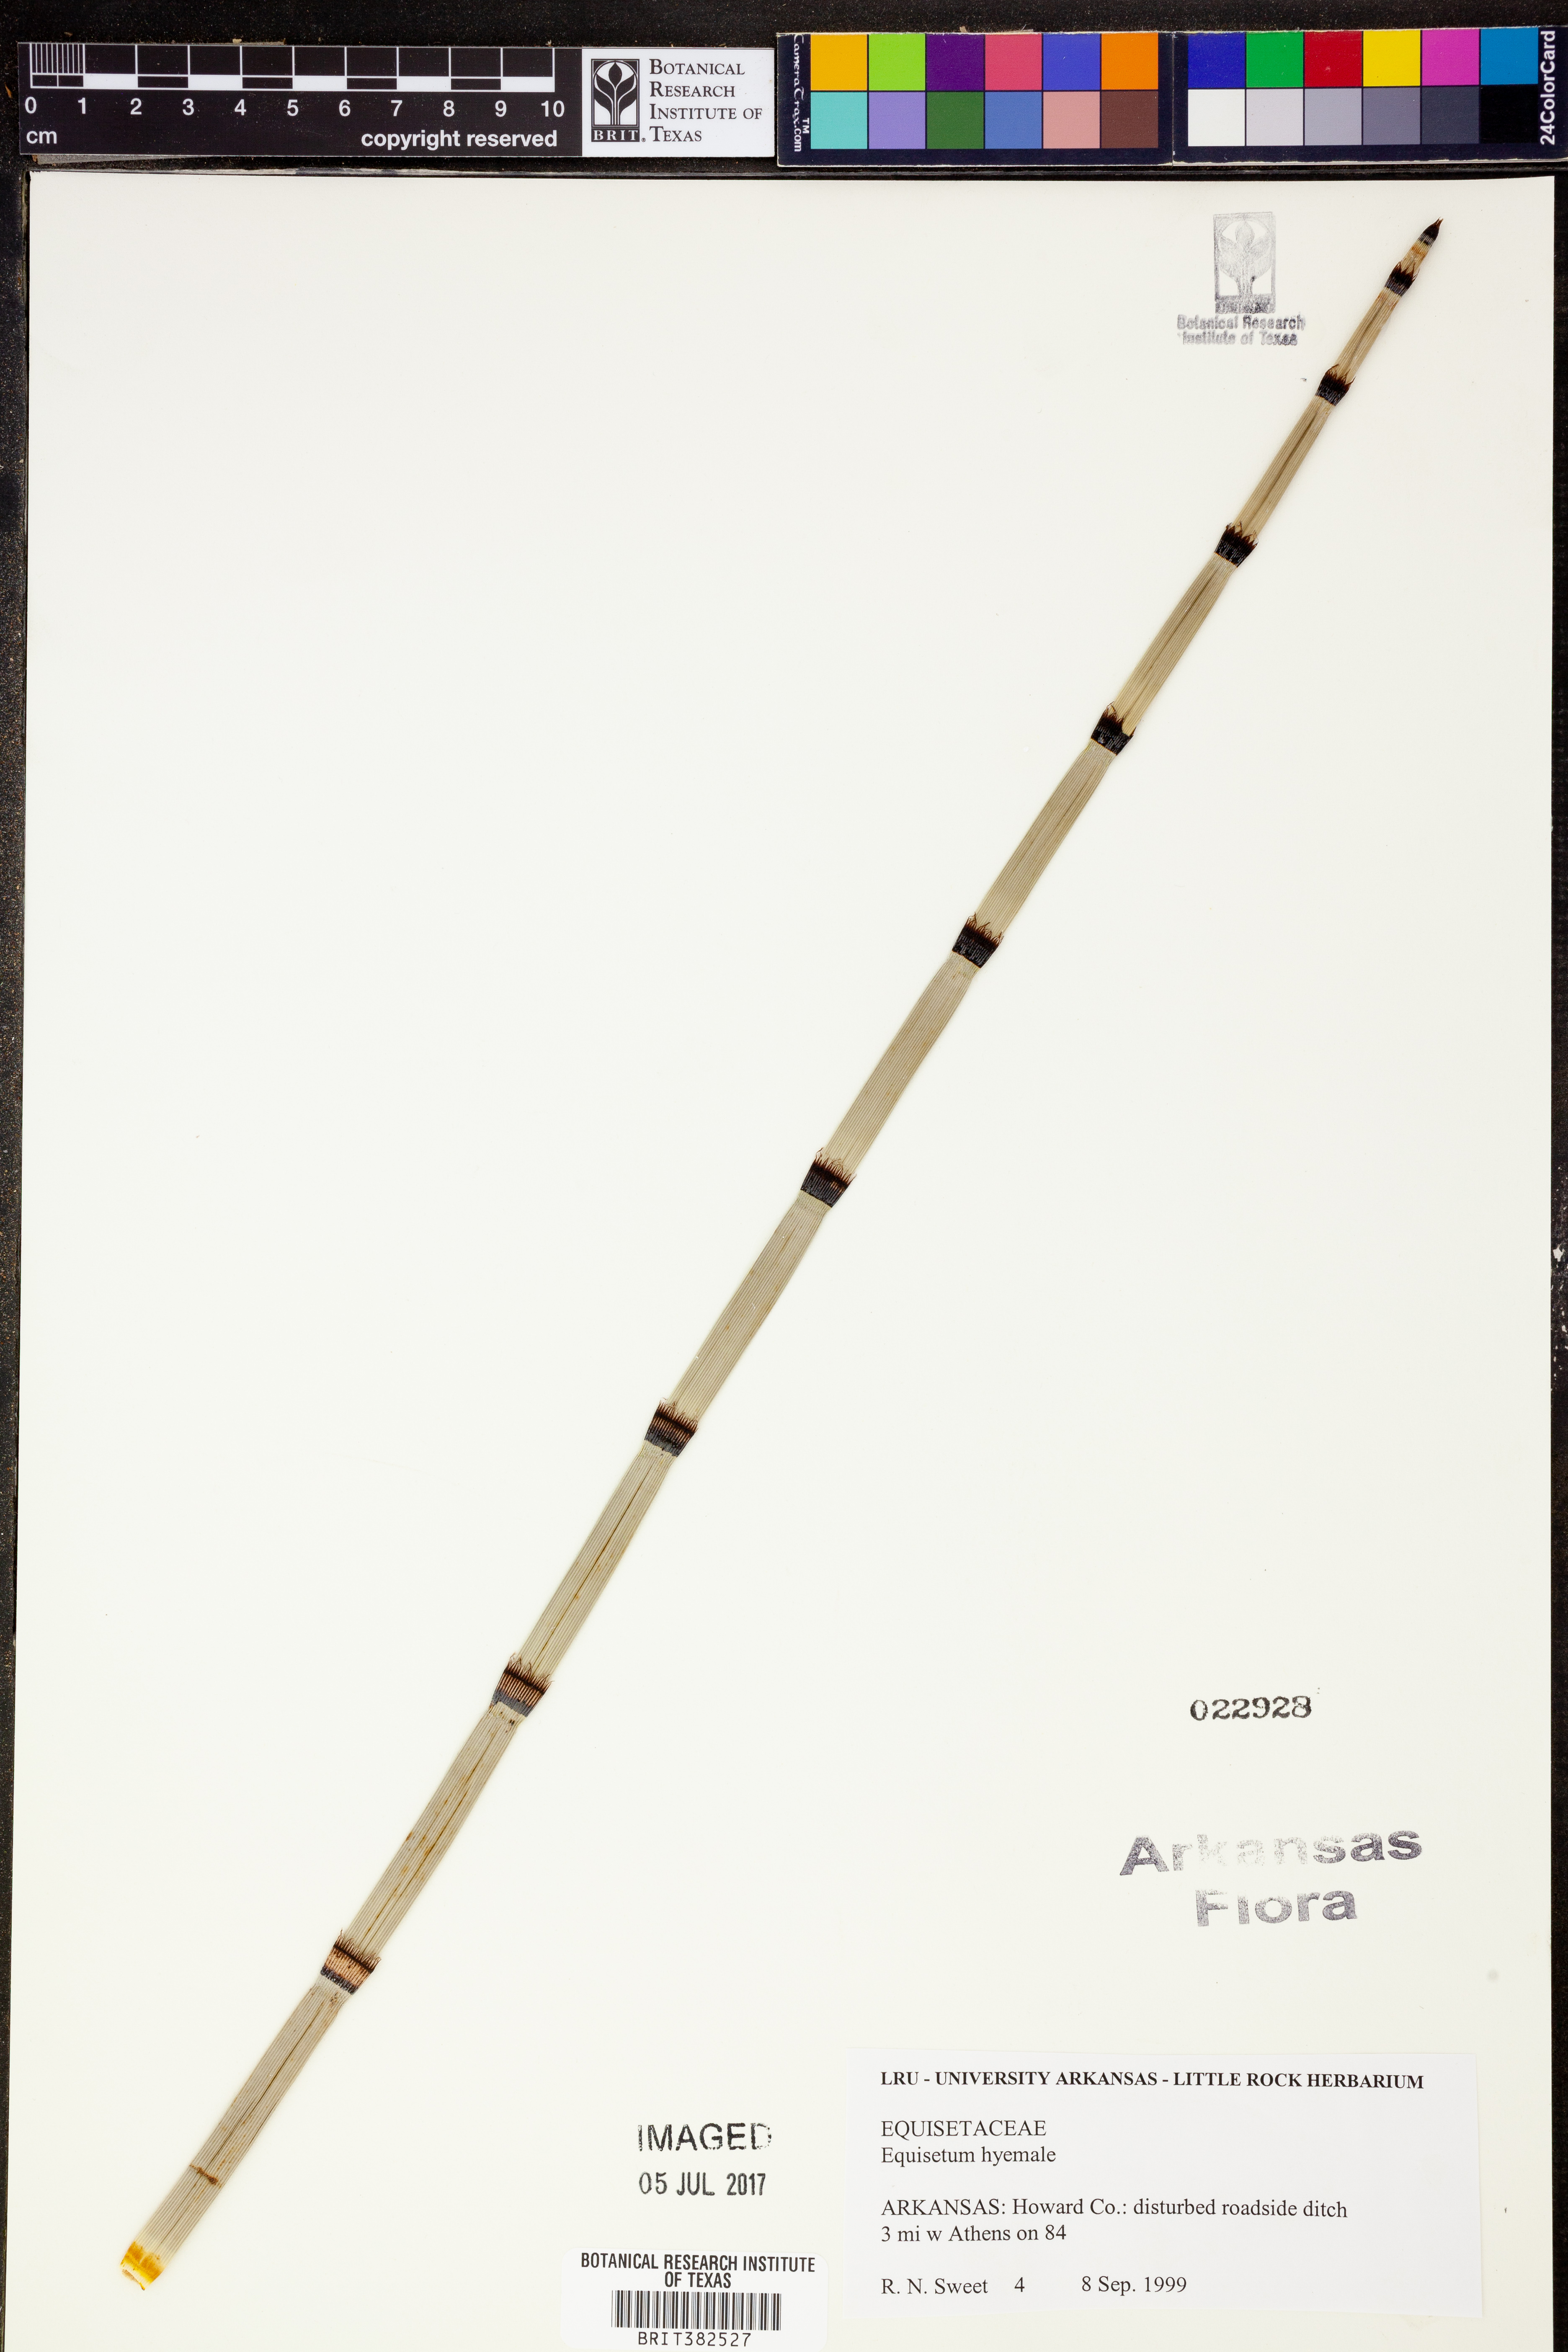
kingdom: Plantae
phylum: Tracheophyta
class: Polypodiopsida
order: Equisetales
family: Equisetaceae
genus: Equisetum
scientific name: Equisetum hyemale
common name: Rough horsetail
